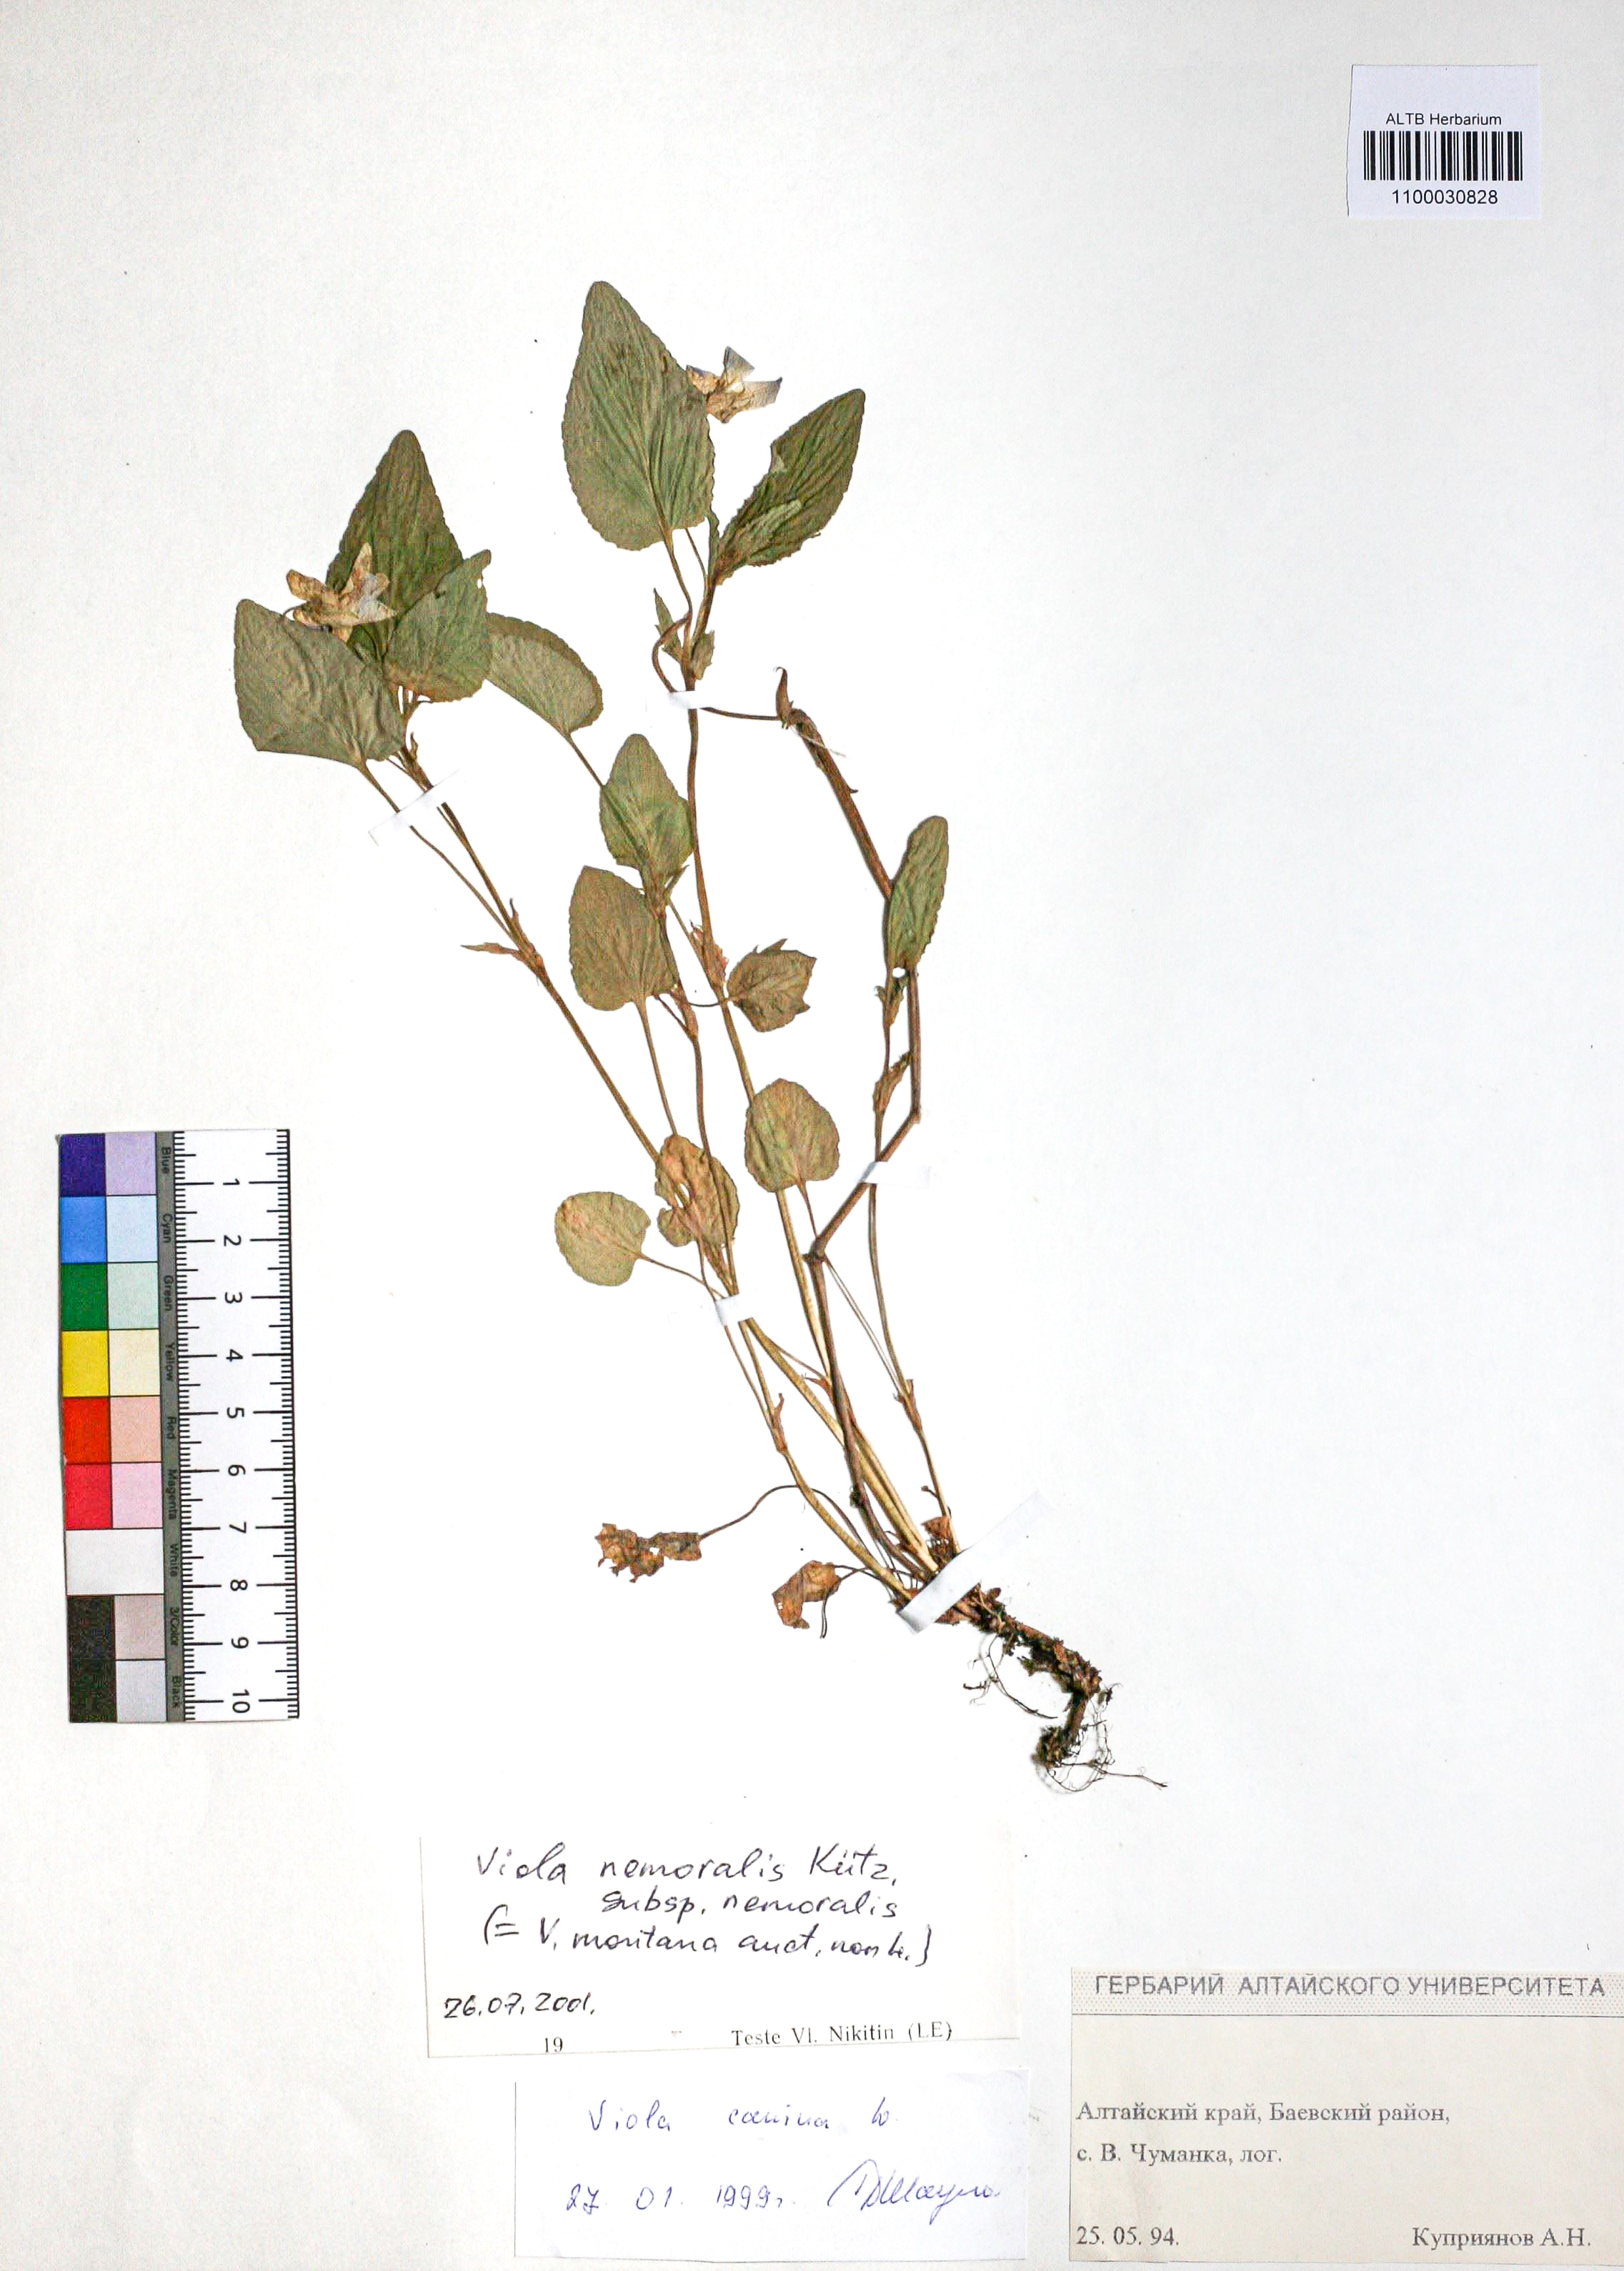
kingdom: Plantae
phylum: Tracheophyta
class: Magnoliopsida
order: Malpighiales
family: Violaceae
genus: Viola
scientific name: Viola ruppii
